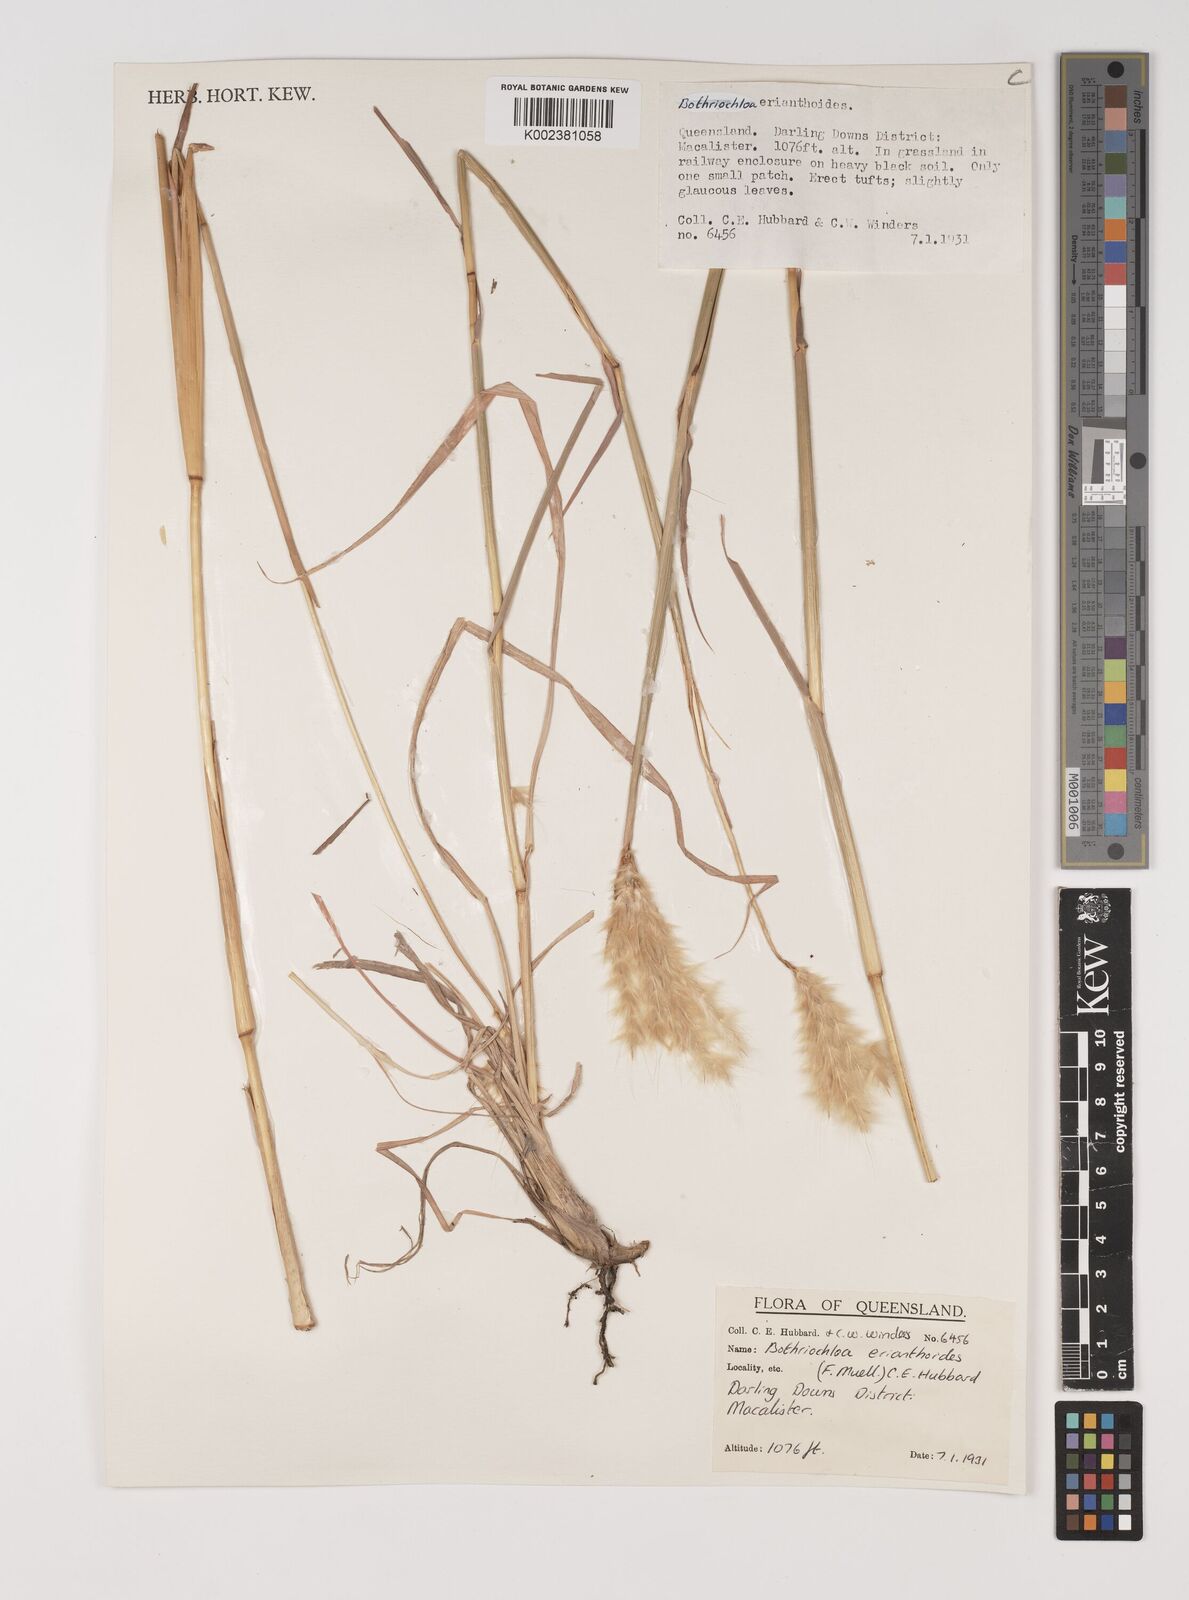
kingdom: Plantae
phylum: Tracheophyta
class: Liliopsida
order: Poales
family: Poaceae
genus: Bothriochloa
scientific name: Bothriochloa erianthoides
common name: Satin-top grass
